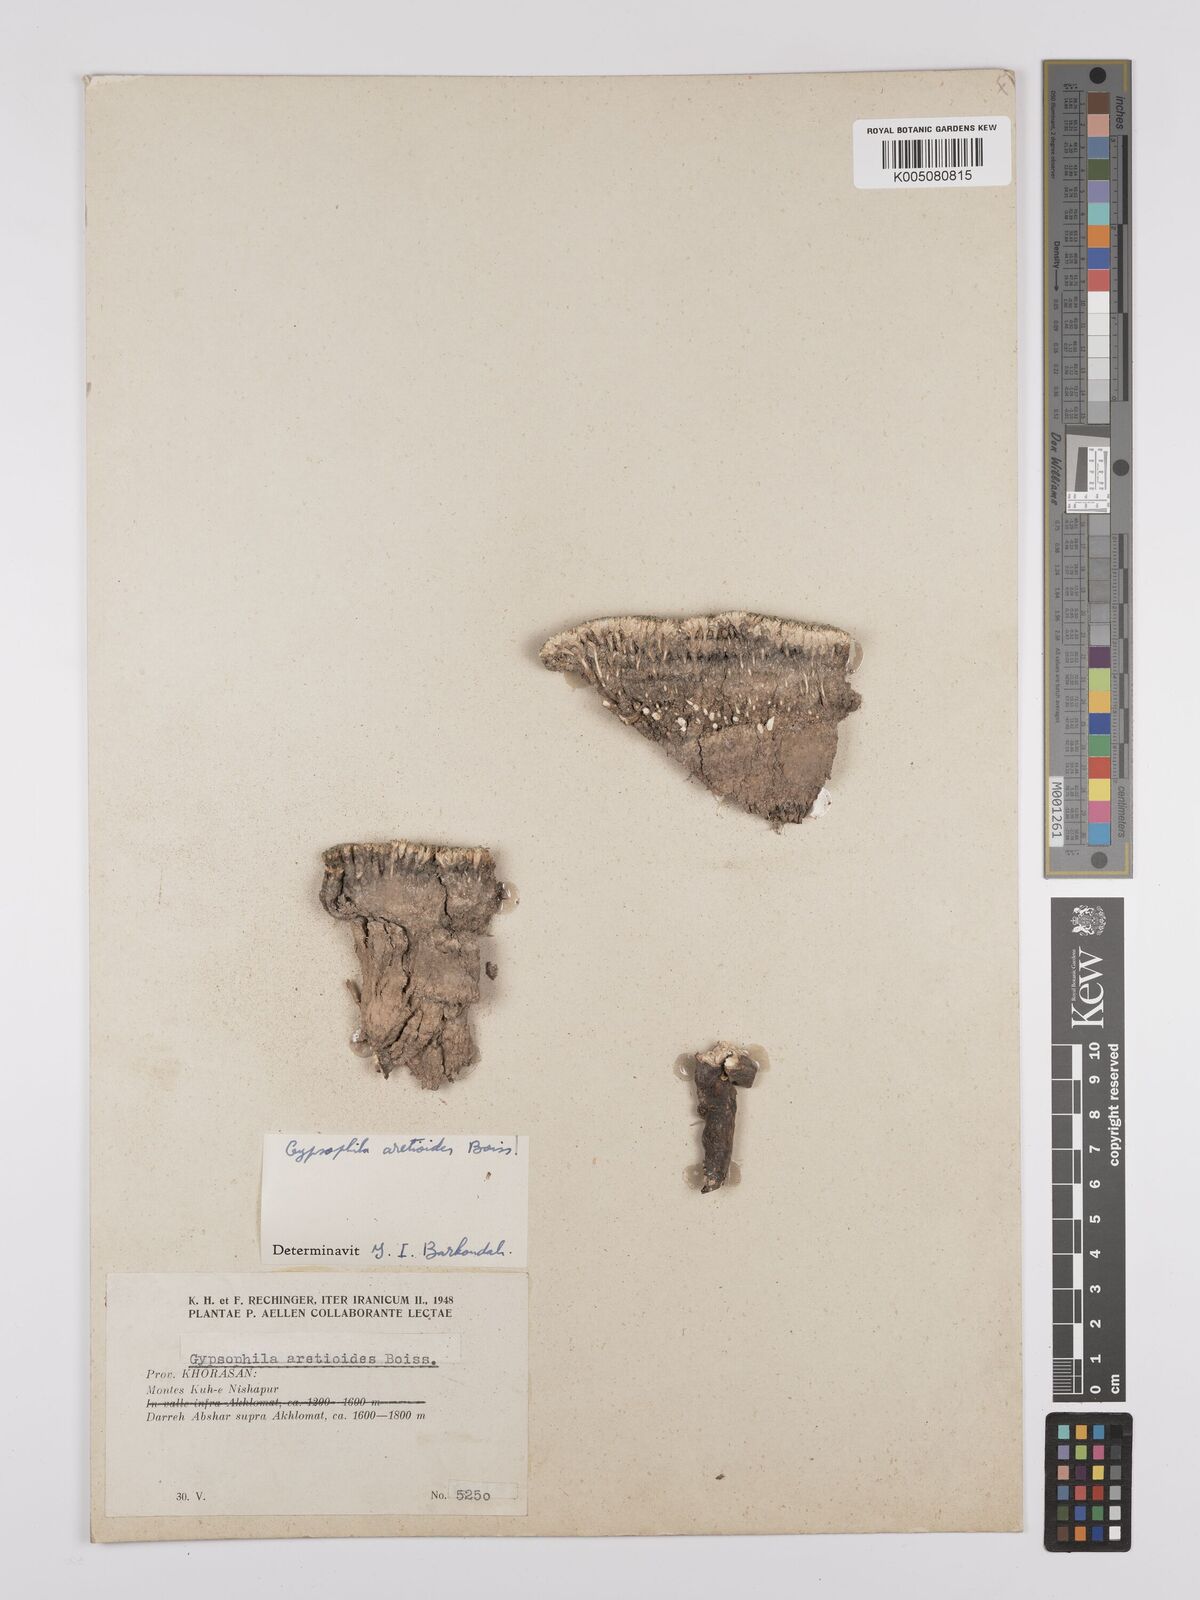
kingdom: Plantae
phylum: Tracheophyta
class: Magnoliopsida
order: Caryophyllales
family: Caryophyllaceae
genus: Gypsophila
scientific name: Gypsophila aretioides
